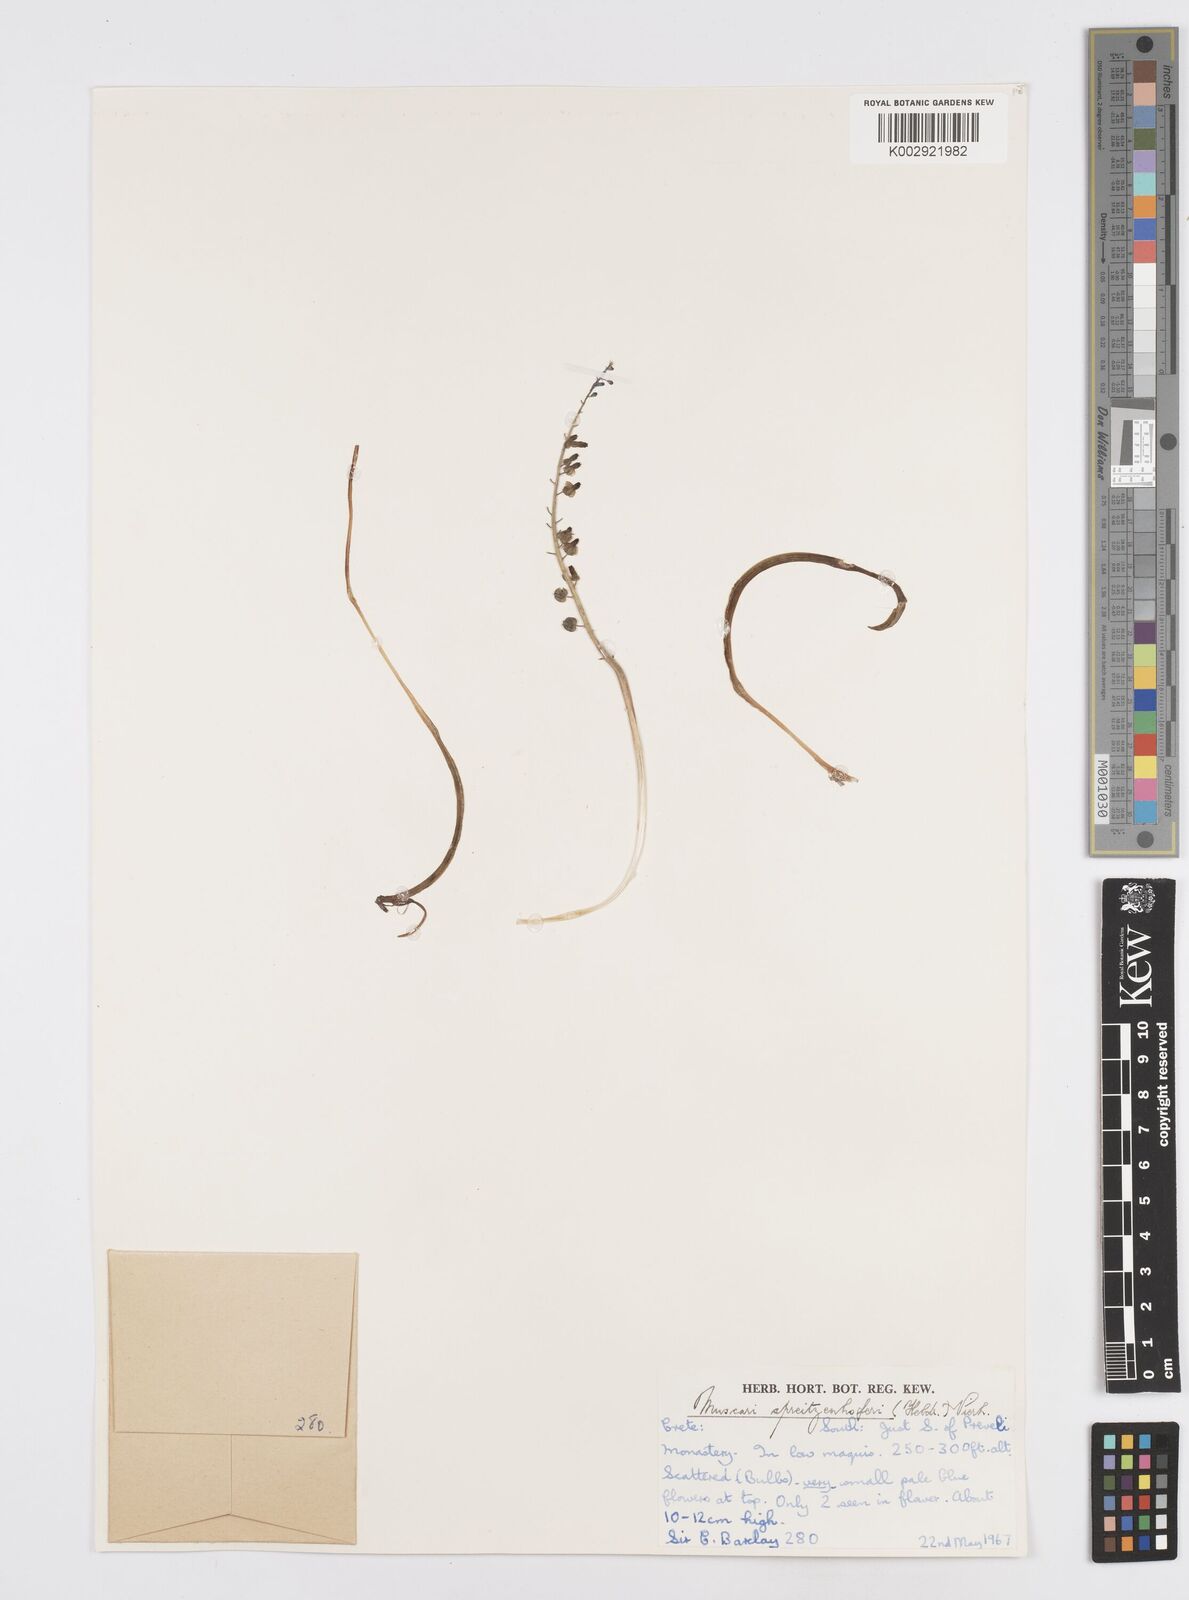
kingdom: Plantae
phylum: Tracheophyta
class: Liliopsida
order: Asparagales
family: Asparagaceae
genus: Muscari
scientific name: Muscari spreitzenhoferi
